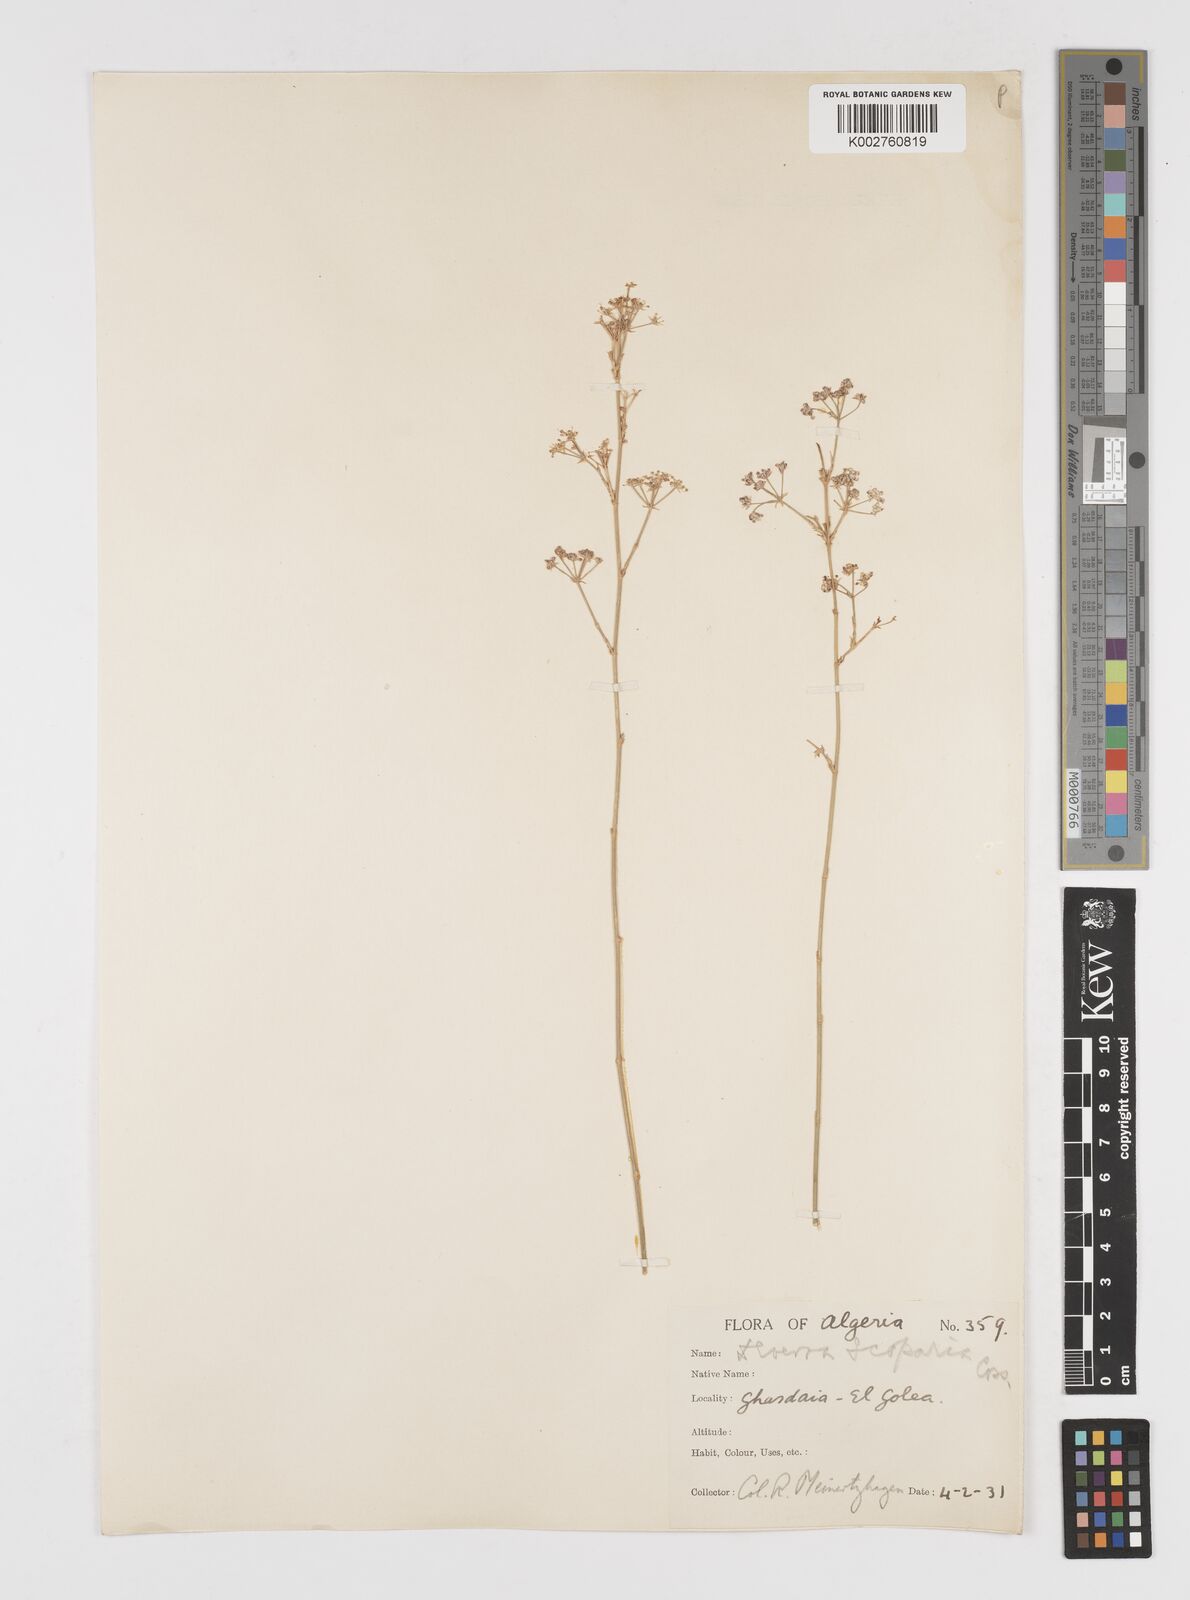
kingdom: Plantae
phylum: Tracheophyta
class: Magnoliopsida
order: Apiales
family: Apiaceae
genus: Deverra
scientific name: Deverra scoparia
